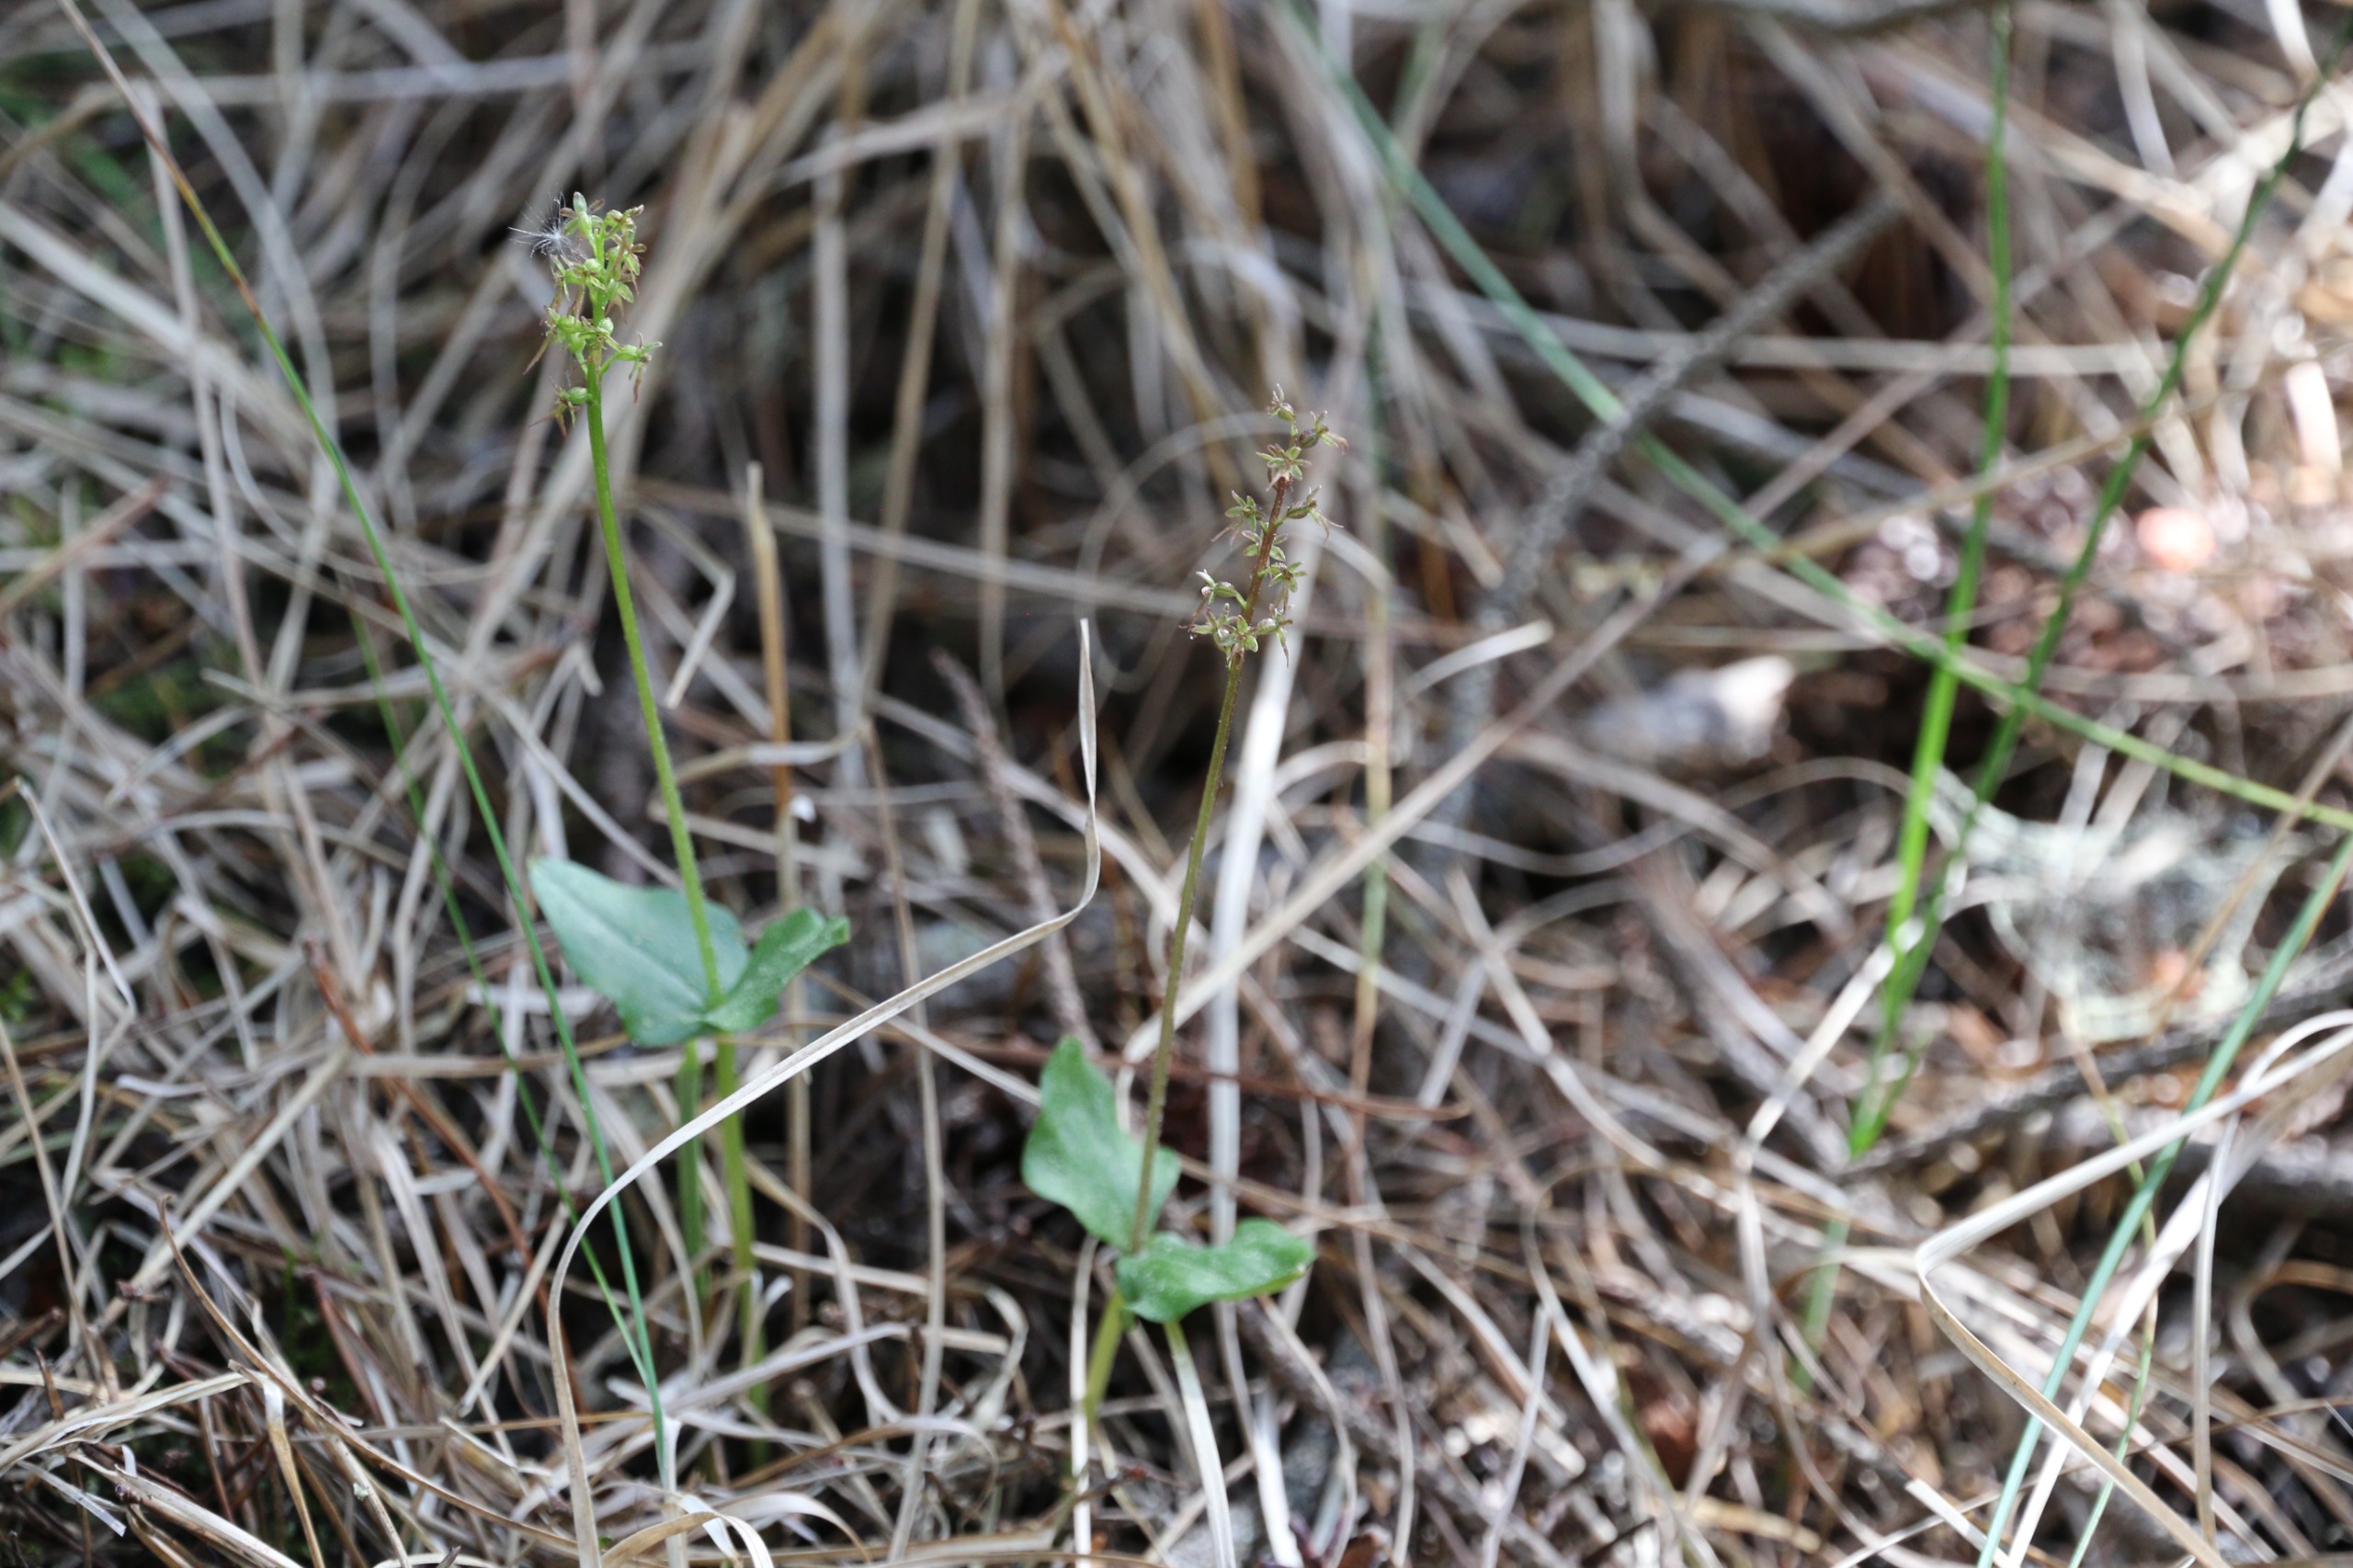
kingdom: Plantae
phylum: Tracheophyta
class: Liliopsida
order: Asparagales
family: Orchidaceae
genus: Neottia
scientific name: Neottia cordata
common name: Hjertebladet fliglæbe
